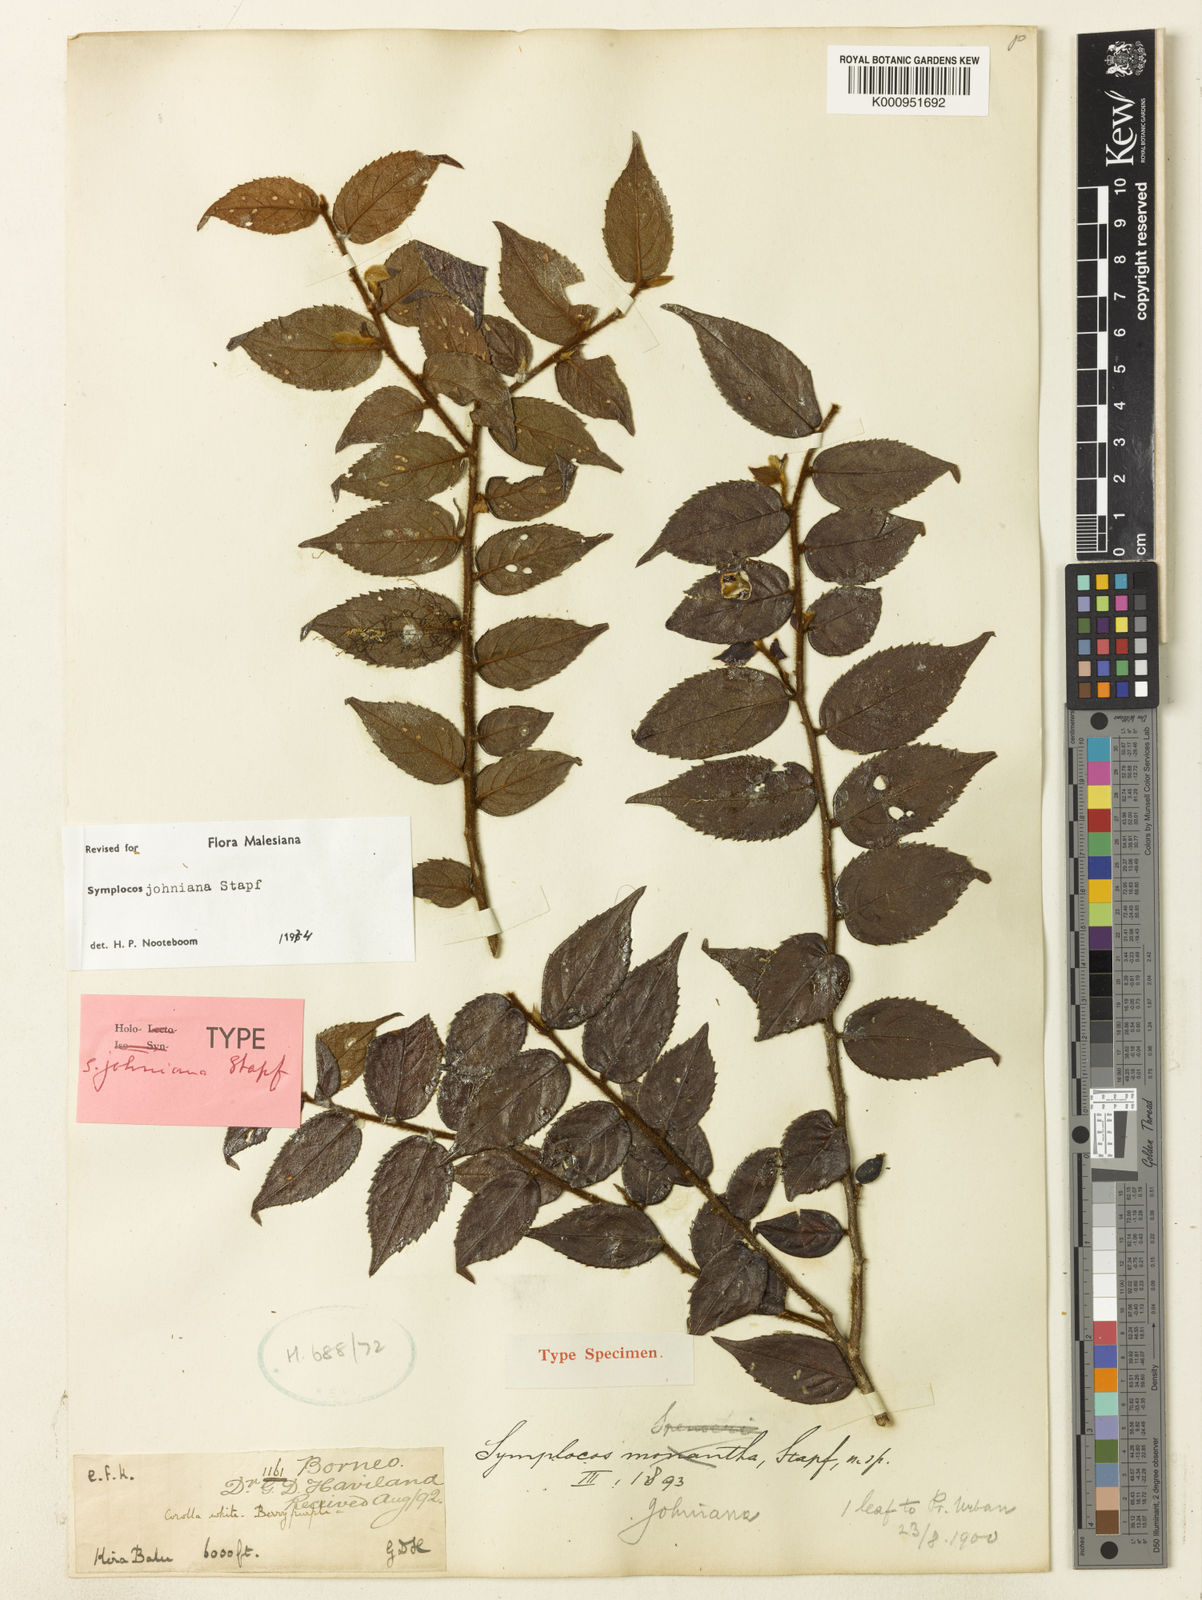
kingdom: Plantae
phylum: Tracheophyta
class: Magnoliopsida
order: Ericales
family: Symplocaceae
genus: Symplocos
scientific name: Symplocos johniana
